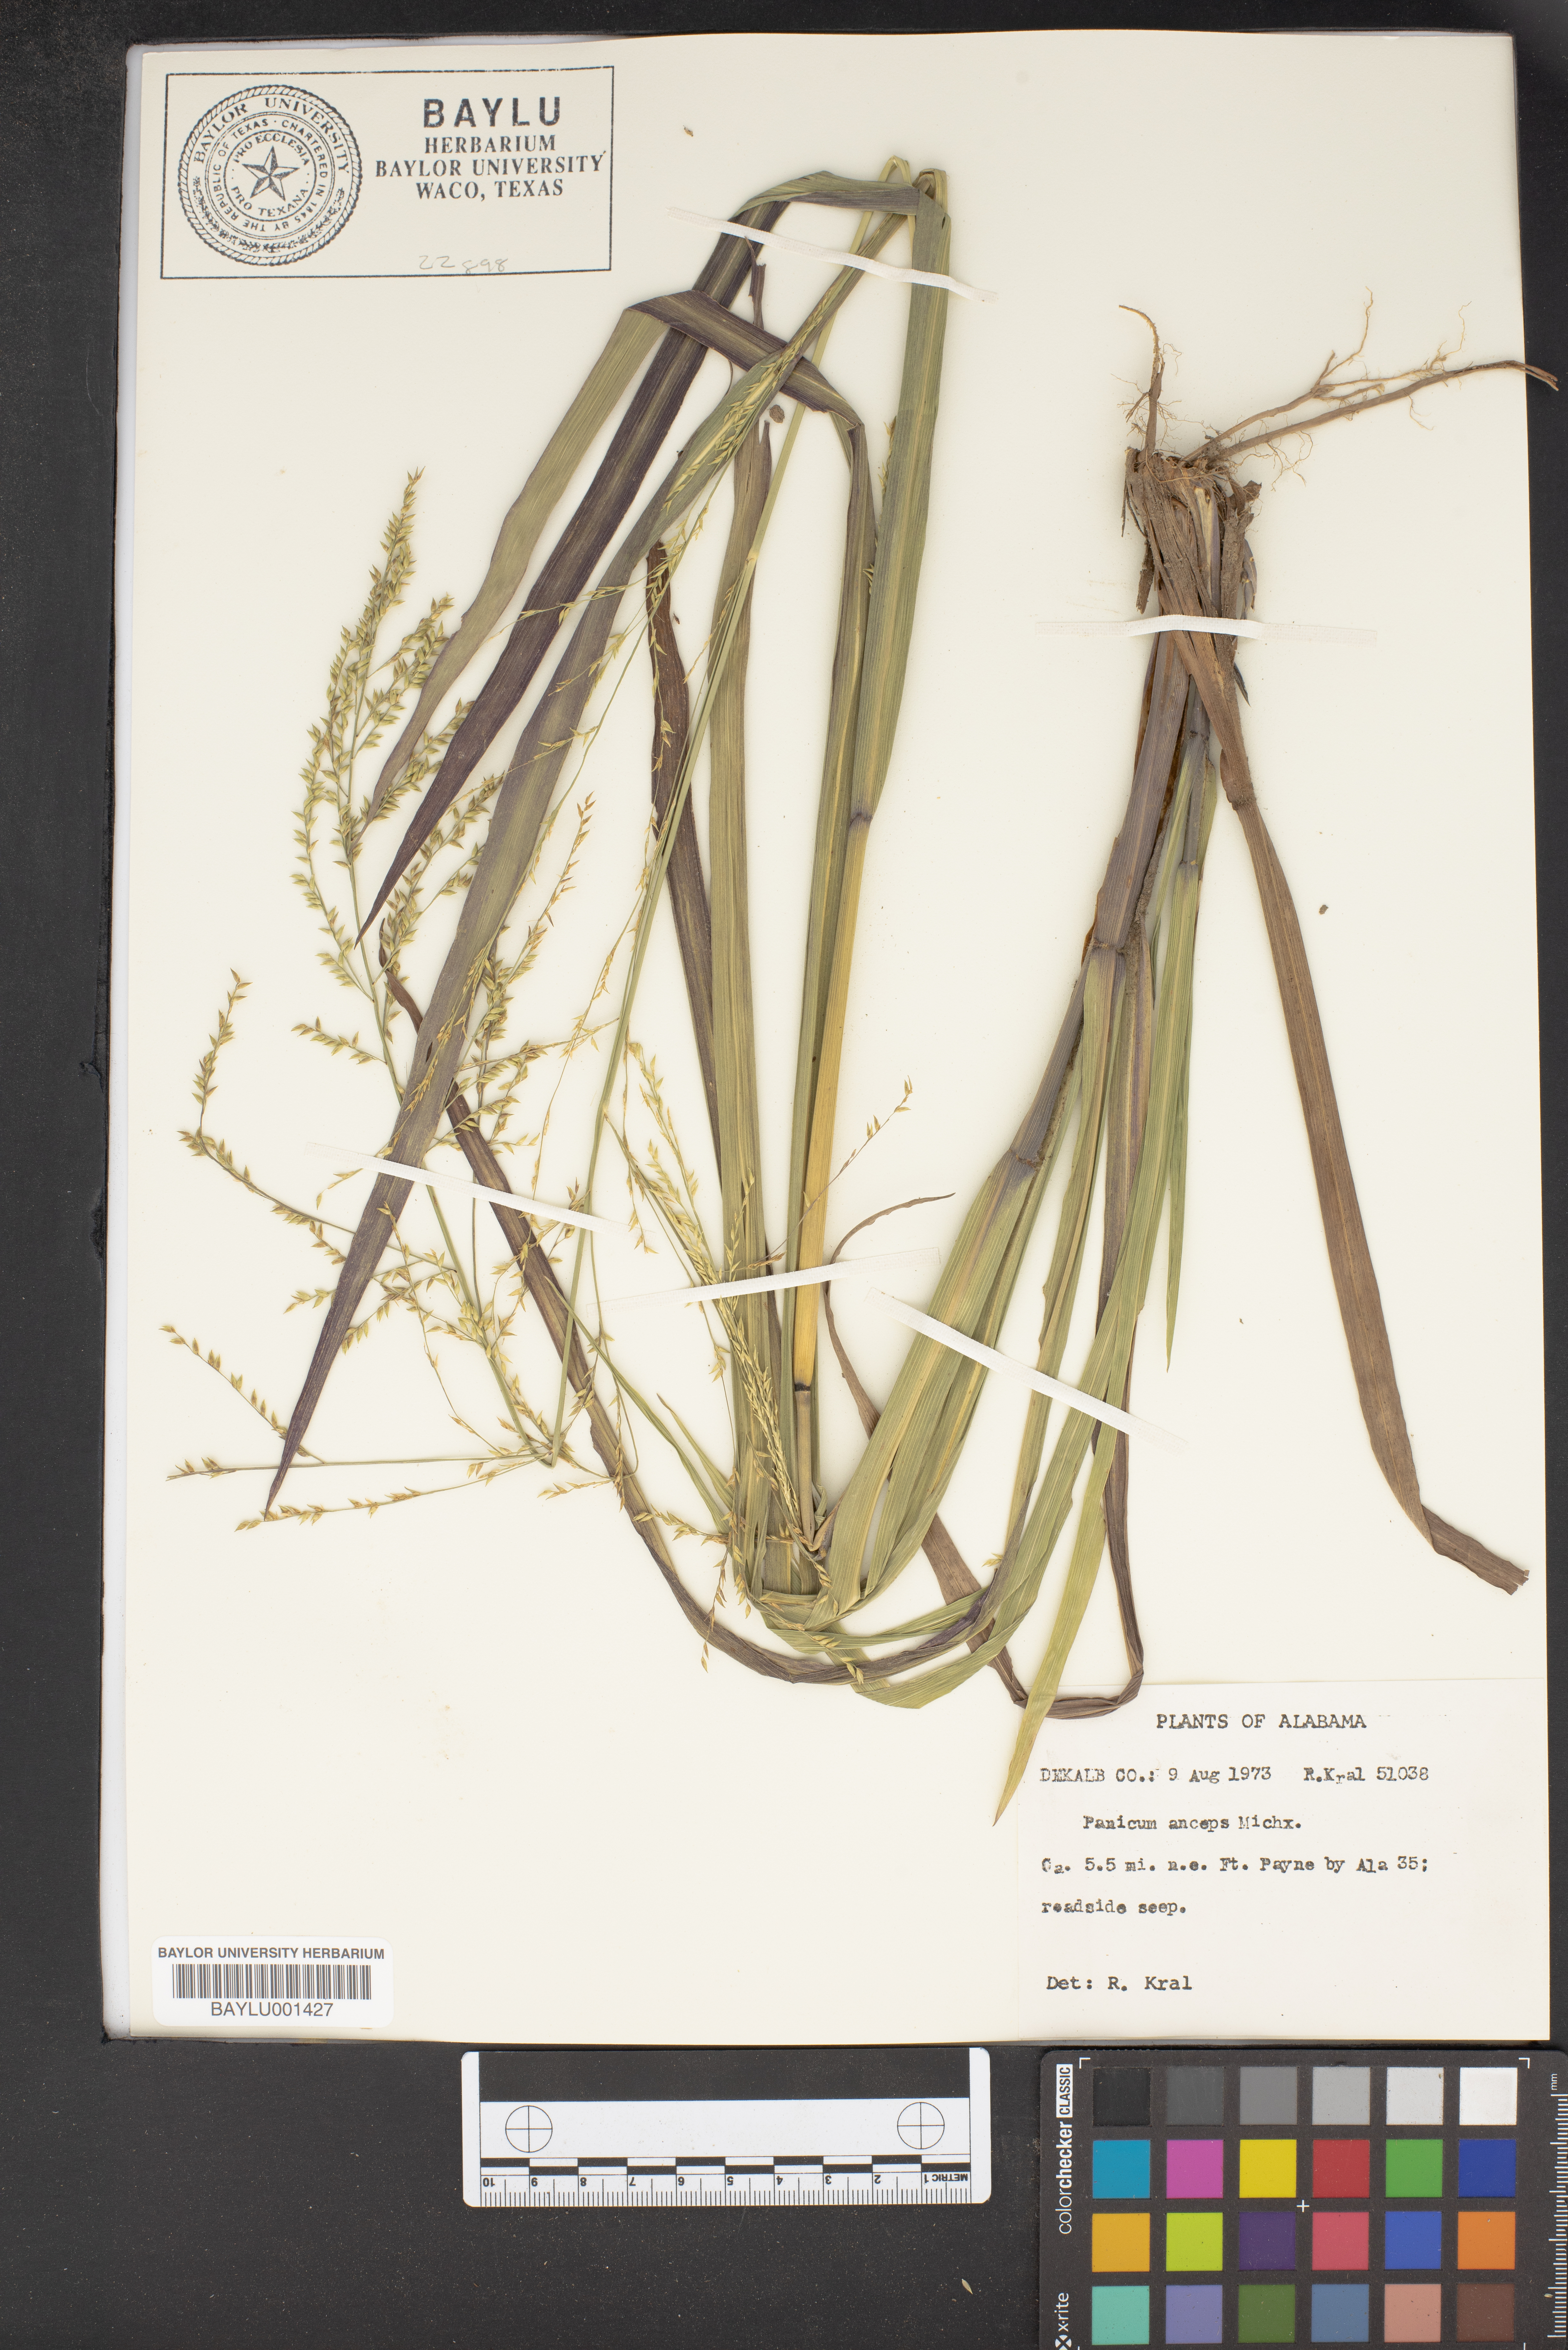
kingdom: Plantae
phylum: Tracheophyta
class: Liliopsida
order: Poales
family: Poaceae
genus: Coleataenia
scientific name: Coleataenia anceps
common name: Beaked panic grass
